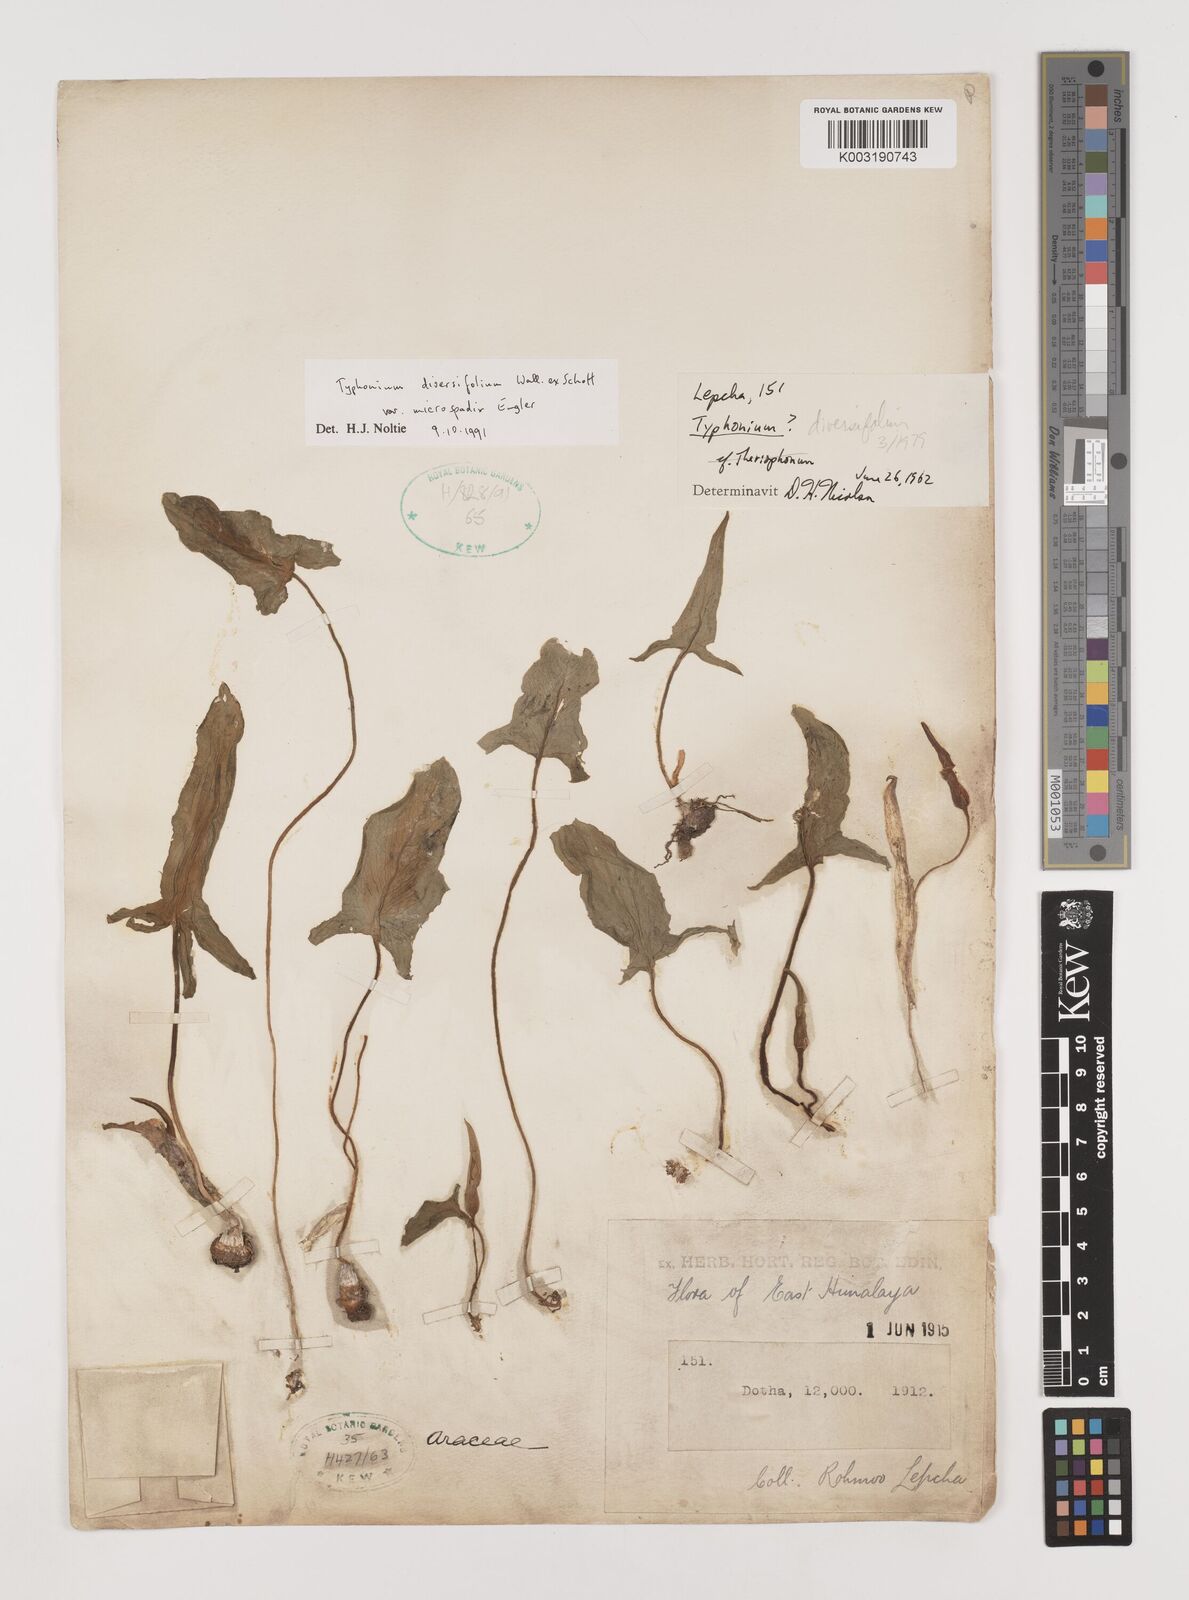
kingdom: Plantae
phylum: Tracheophyta
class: Liliopsida
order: Alismatales
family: Araceae
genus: Sauromatum
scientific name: Sauromatum diversifolium
